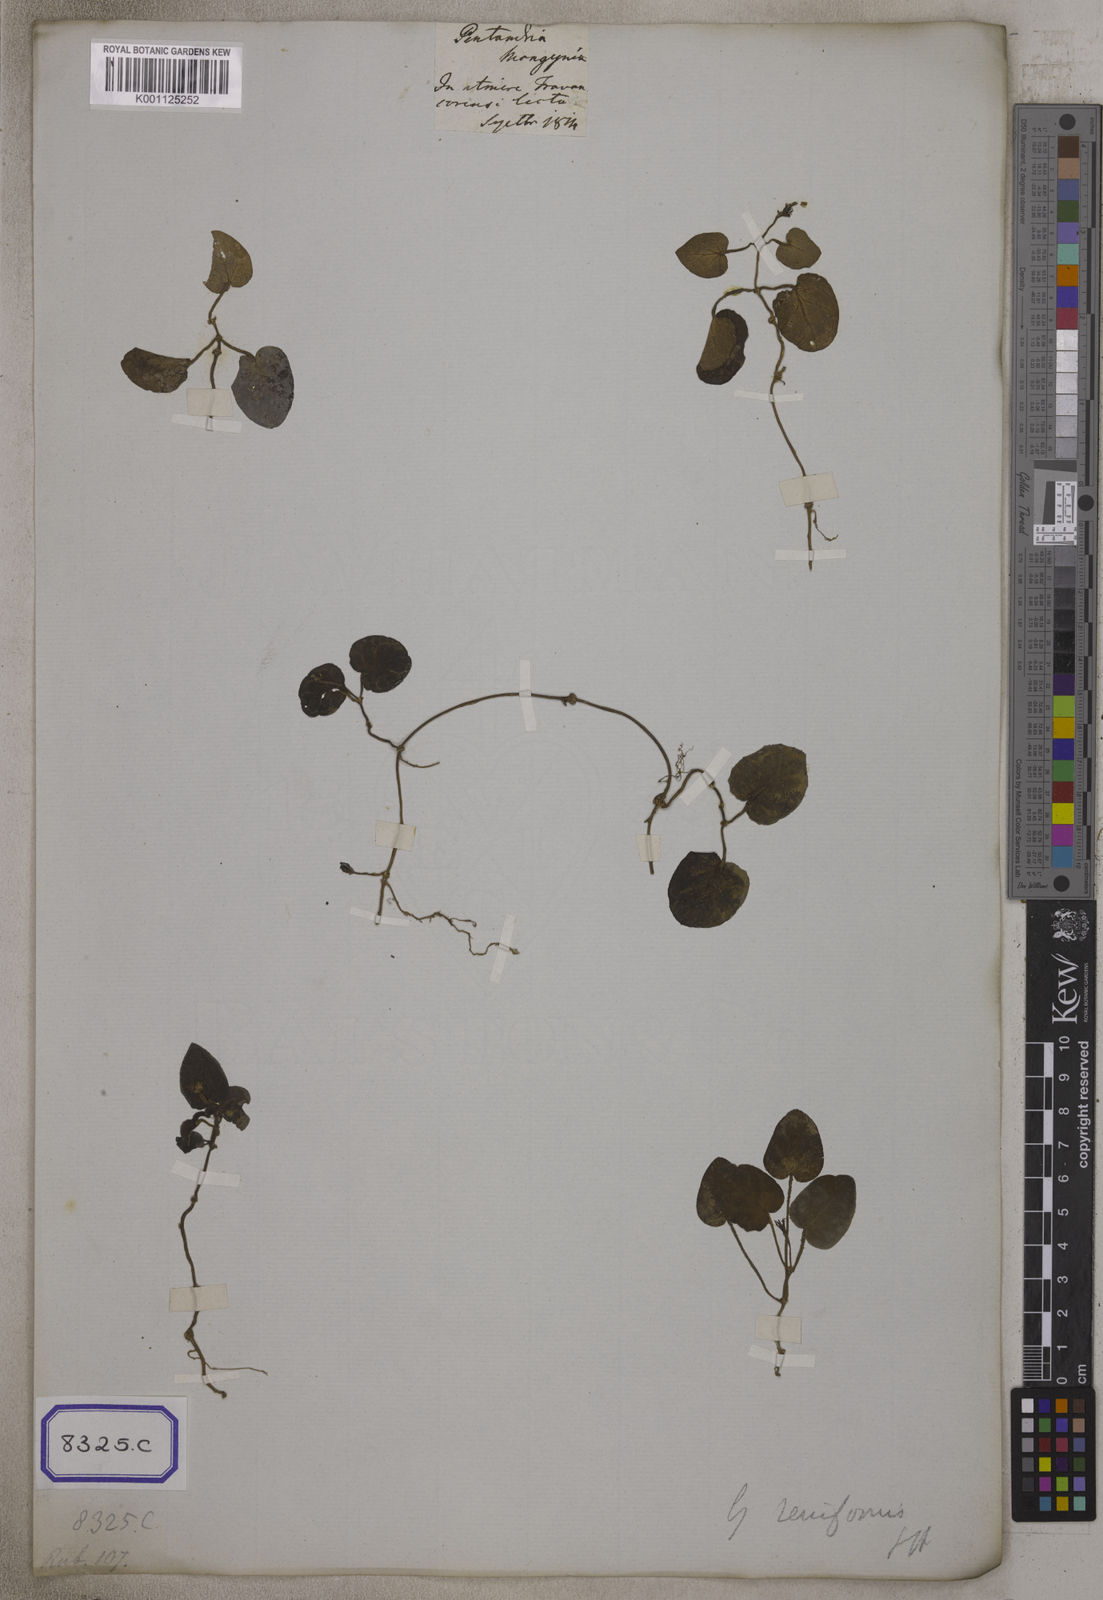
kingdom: Plantae
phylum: Tracheophyta
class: Magnoliopsida
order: Gentianales
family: Rubiaceae
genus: Geophila
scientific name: Geophila herbacea
